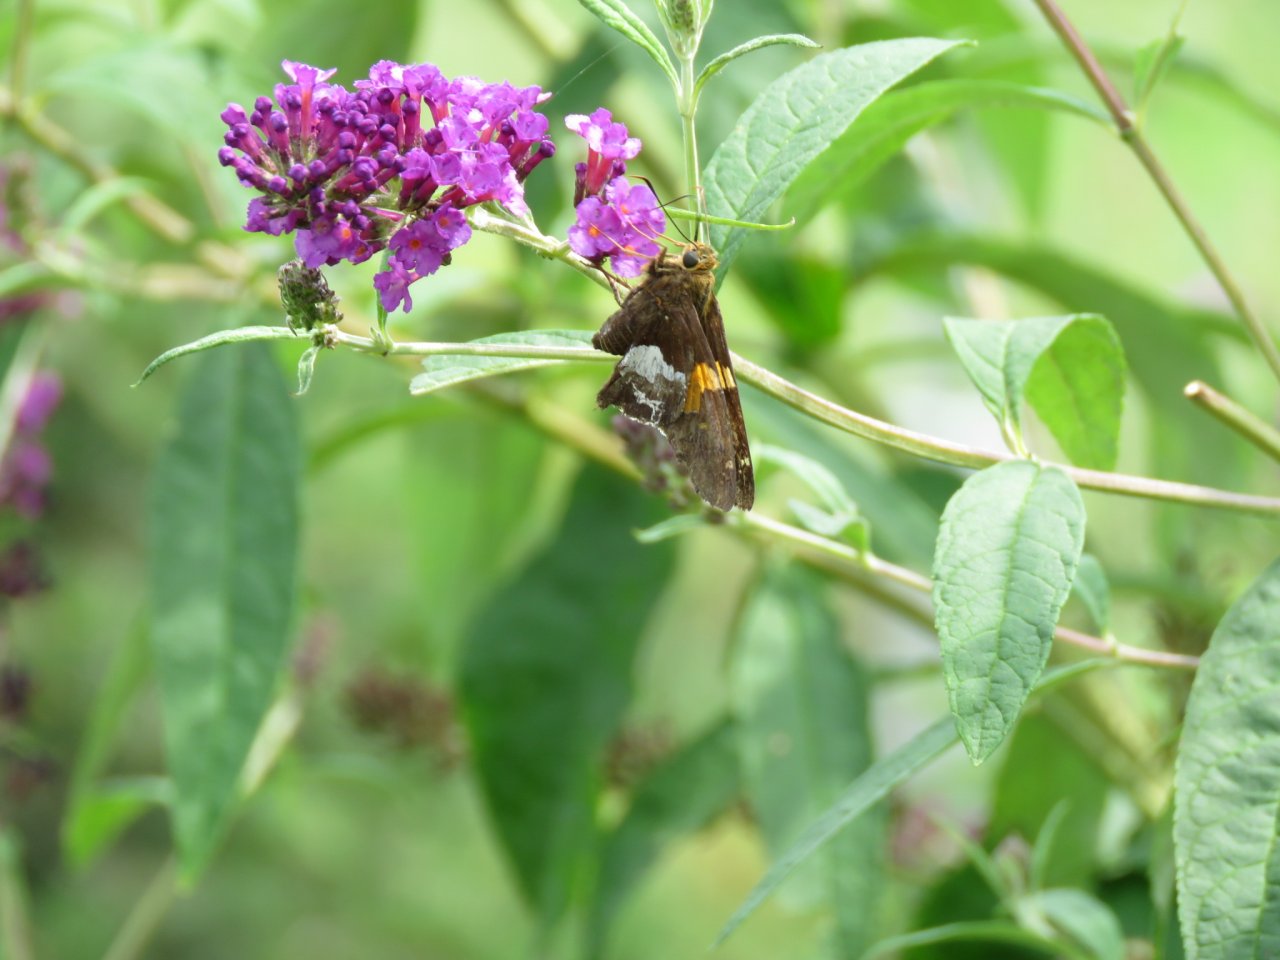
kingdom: Animalia
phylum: Arthropoda
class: Insecta
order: Lepidoptera
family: Hesperiidae
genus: Epargyreus
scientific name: Epargyreus clarus
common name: Silver-spotted Skipper
